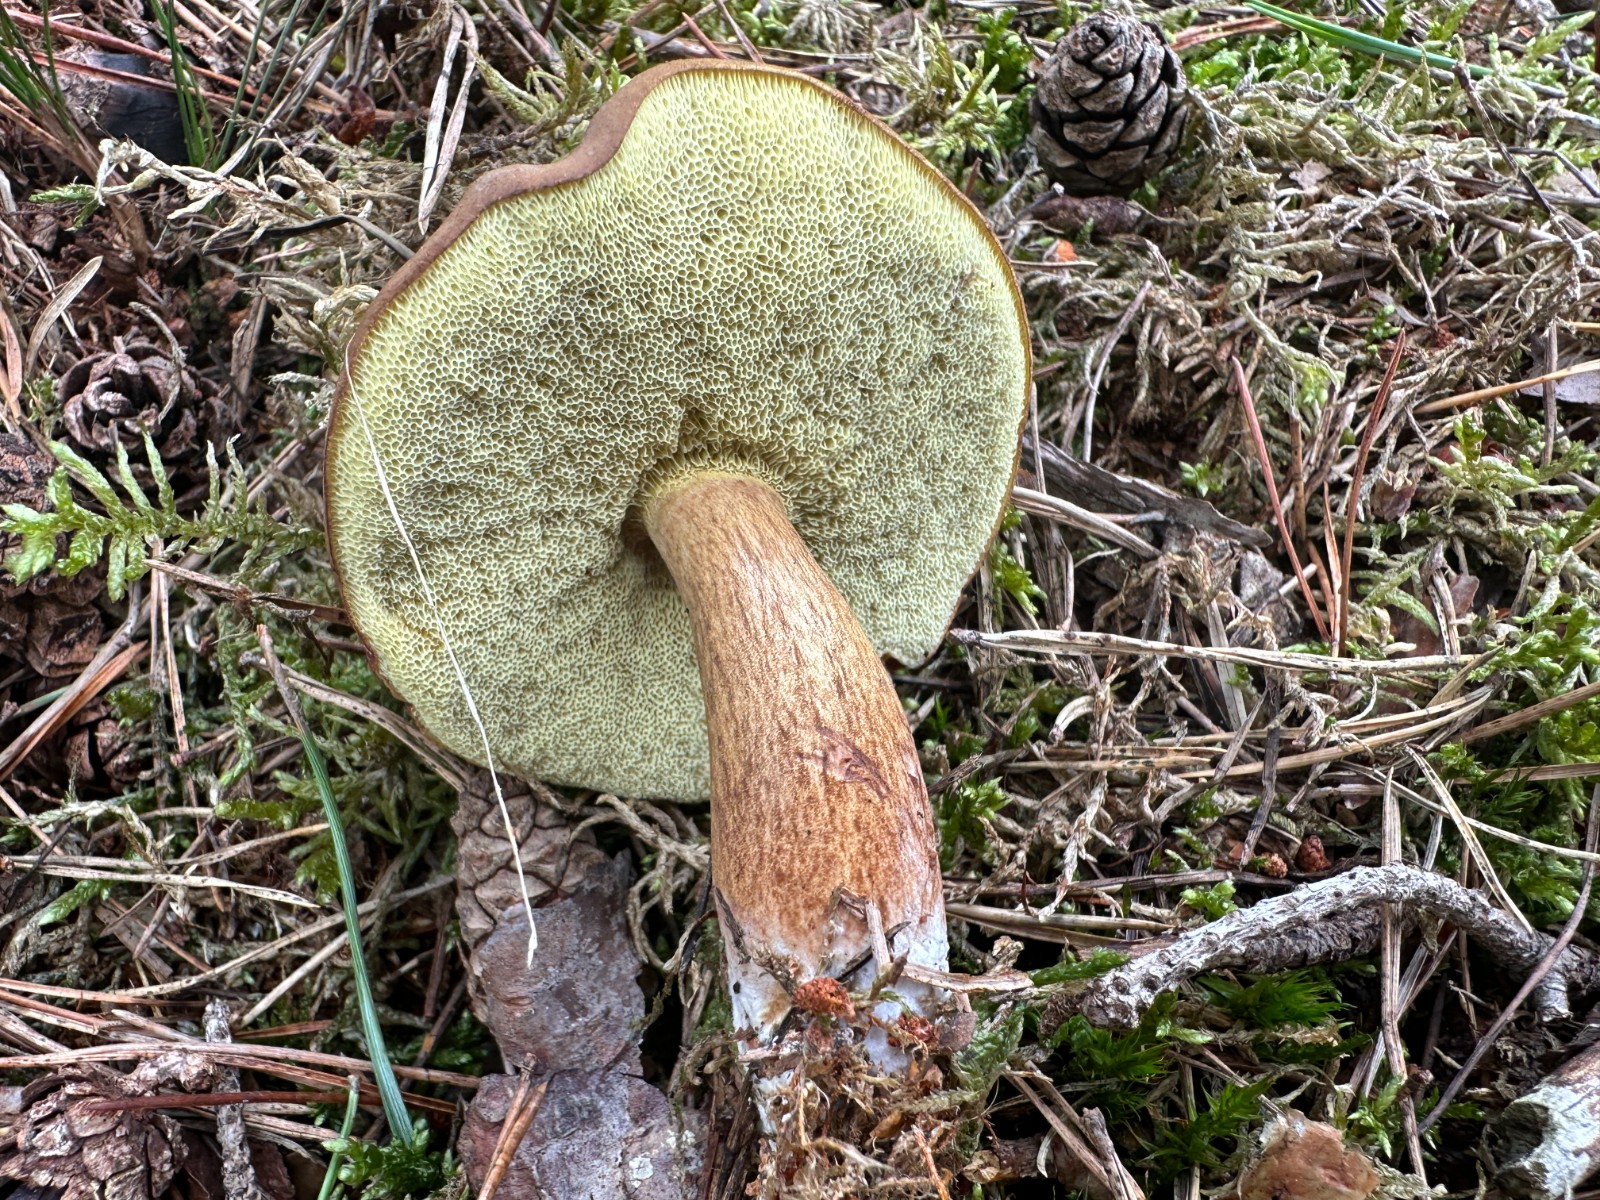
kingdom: Fungi
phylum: Basidiomycota
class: Agaricomycetes
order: Boletales
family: Boletaceae
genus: Imleria
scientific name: Imleria badia
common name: brunstokket rørhat
